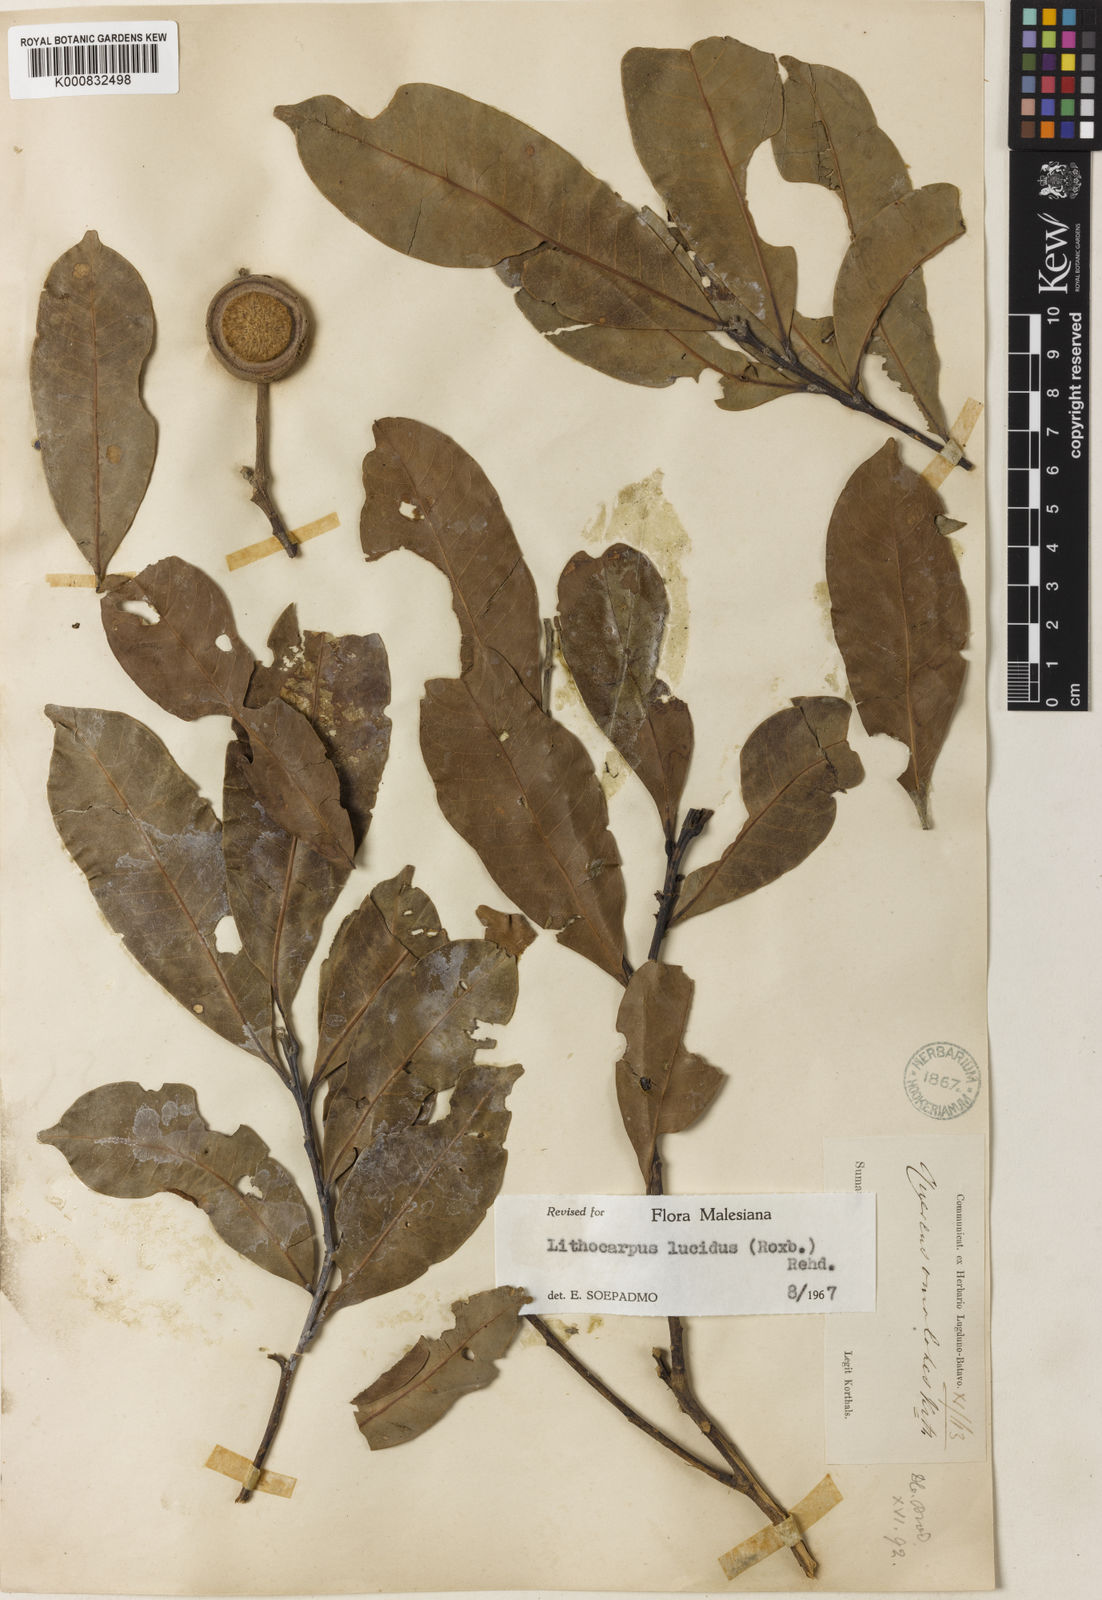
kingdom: Plantae
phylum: Tracheophyta
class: Magnoliopsida
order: Fagales
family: Fagaceae
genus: Lithocarpus
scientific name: Lithocarpus lucidus
